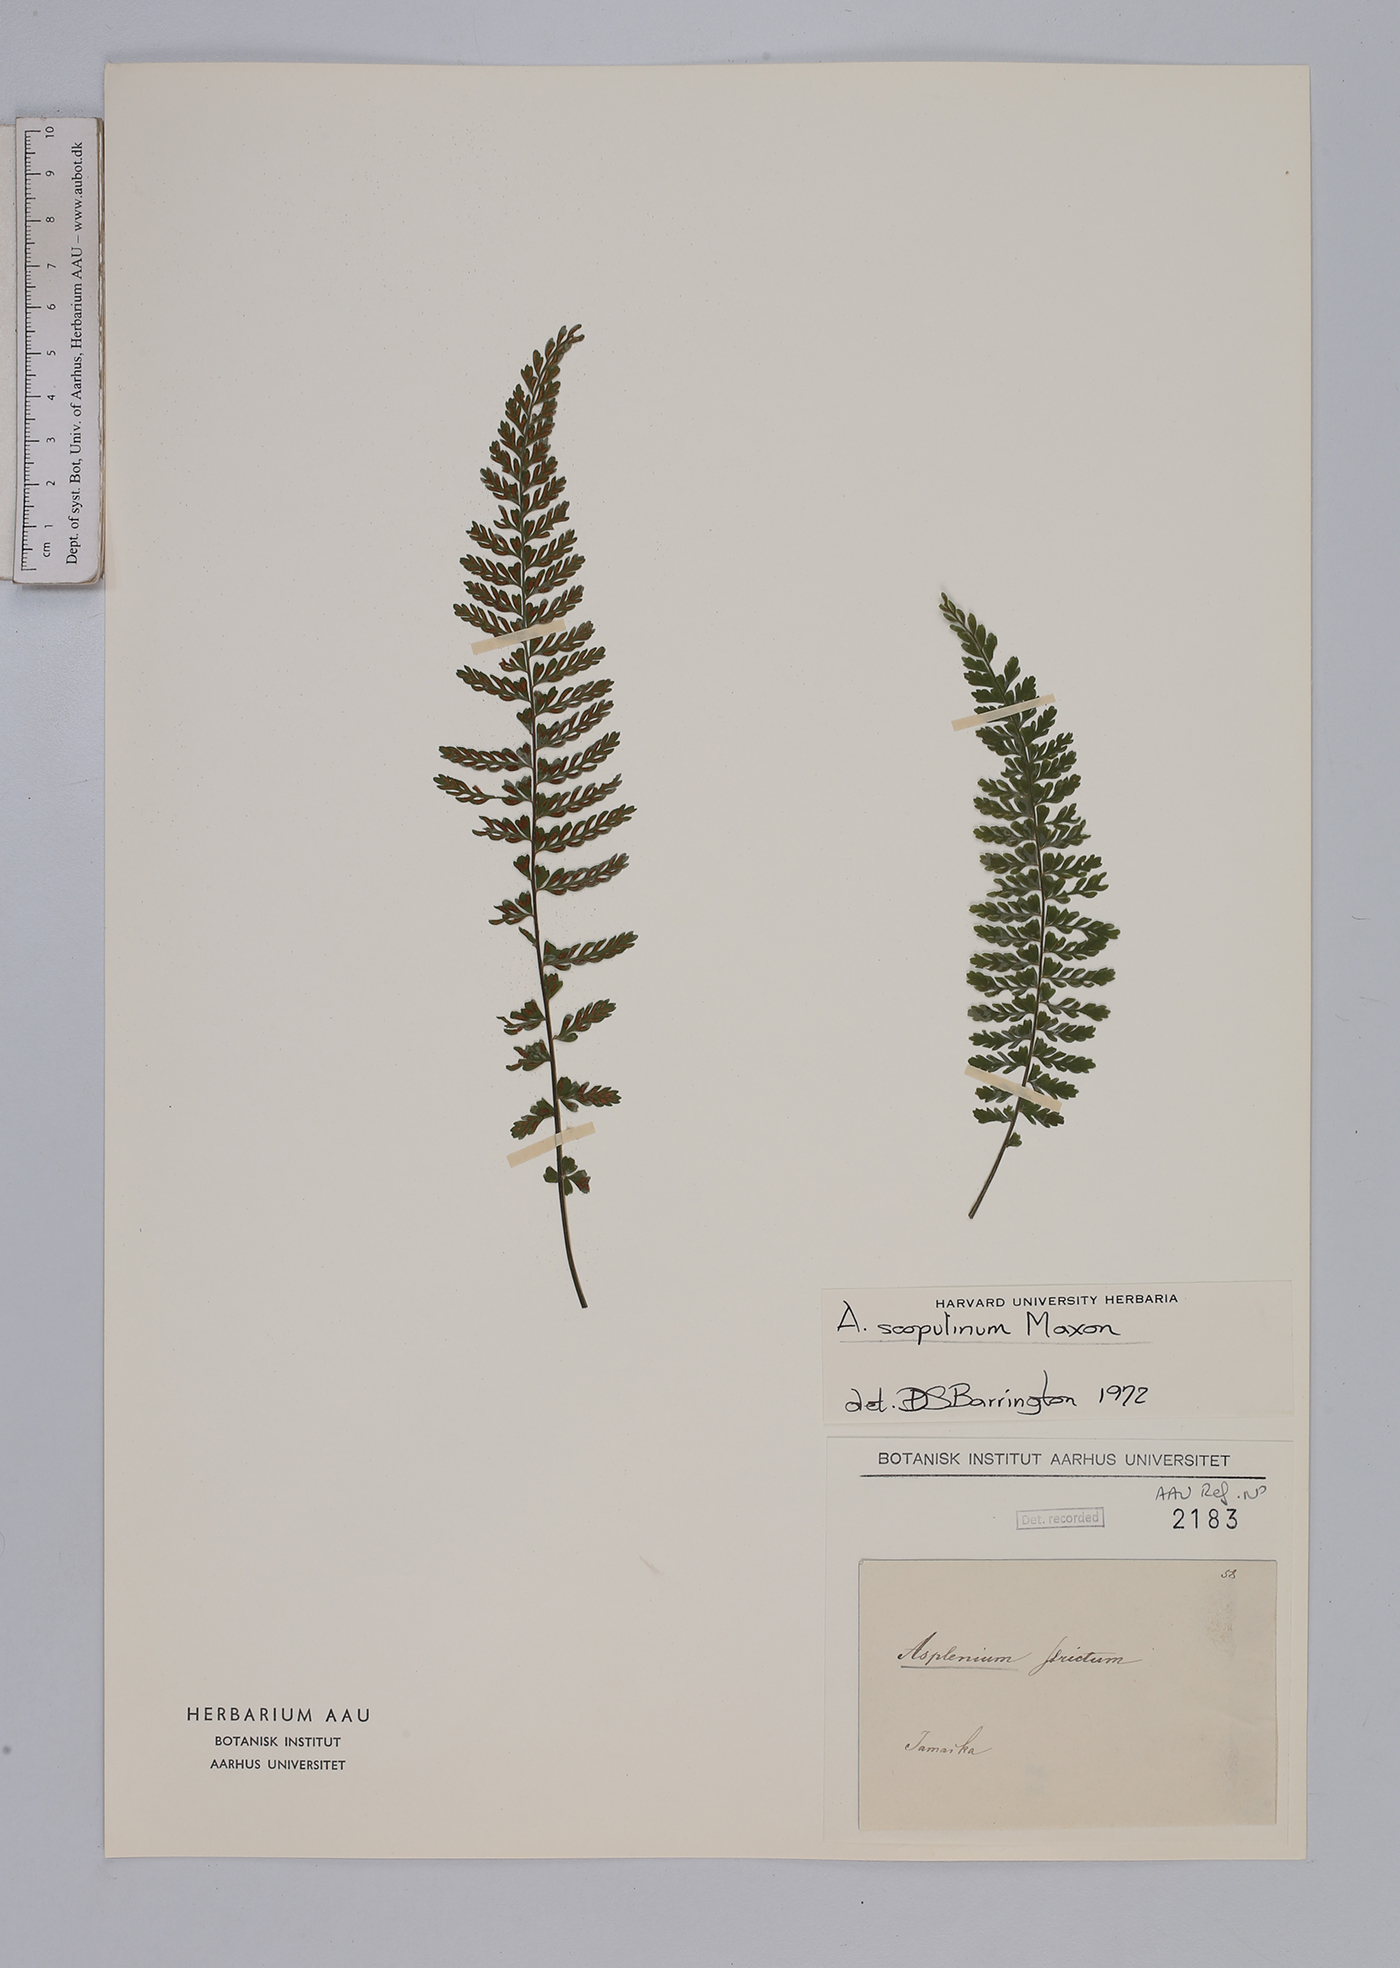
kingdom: Plantae
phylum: Tracheophyta
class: Polypodiopsida
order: Polypodiales
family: Aspleniaceae
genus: Asplenium
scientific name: Asplenium
